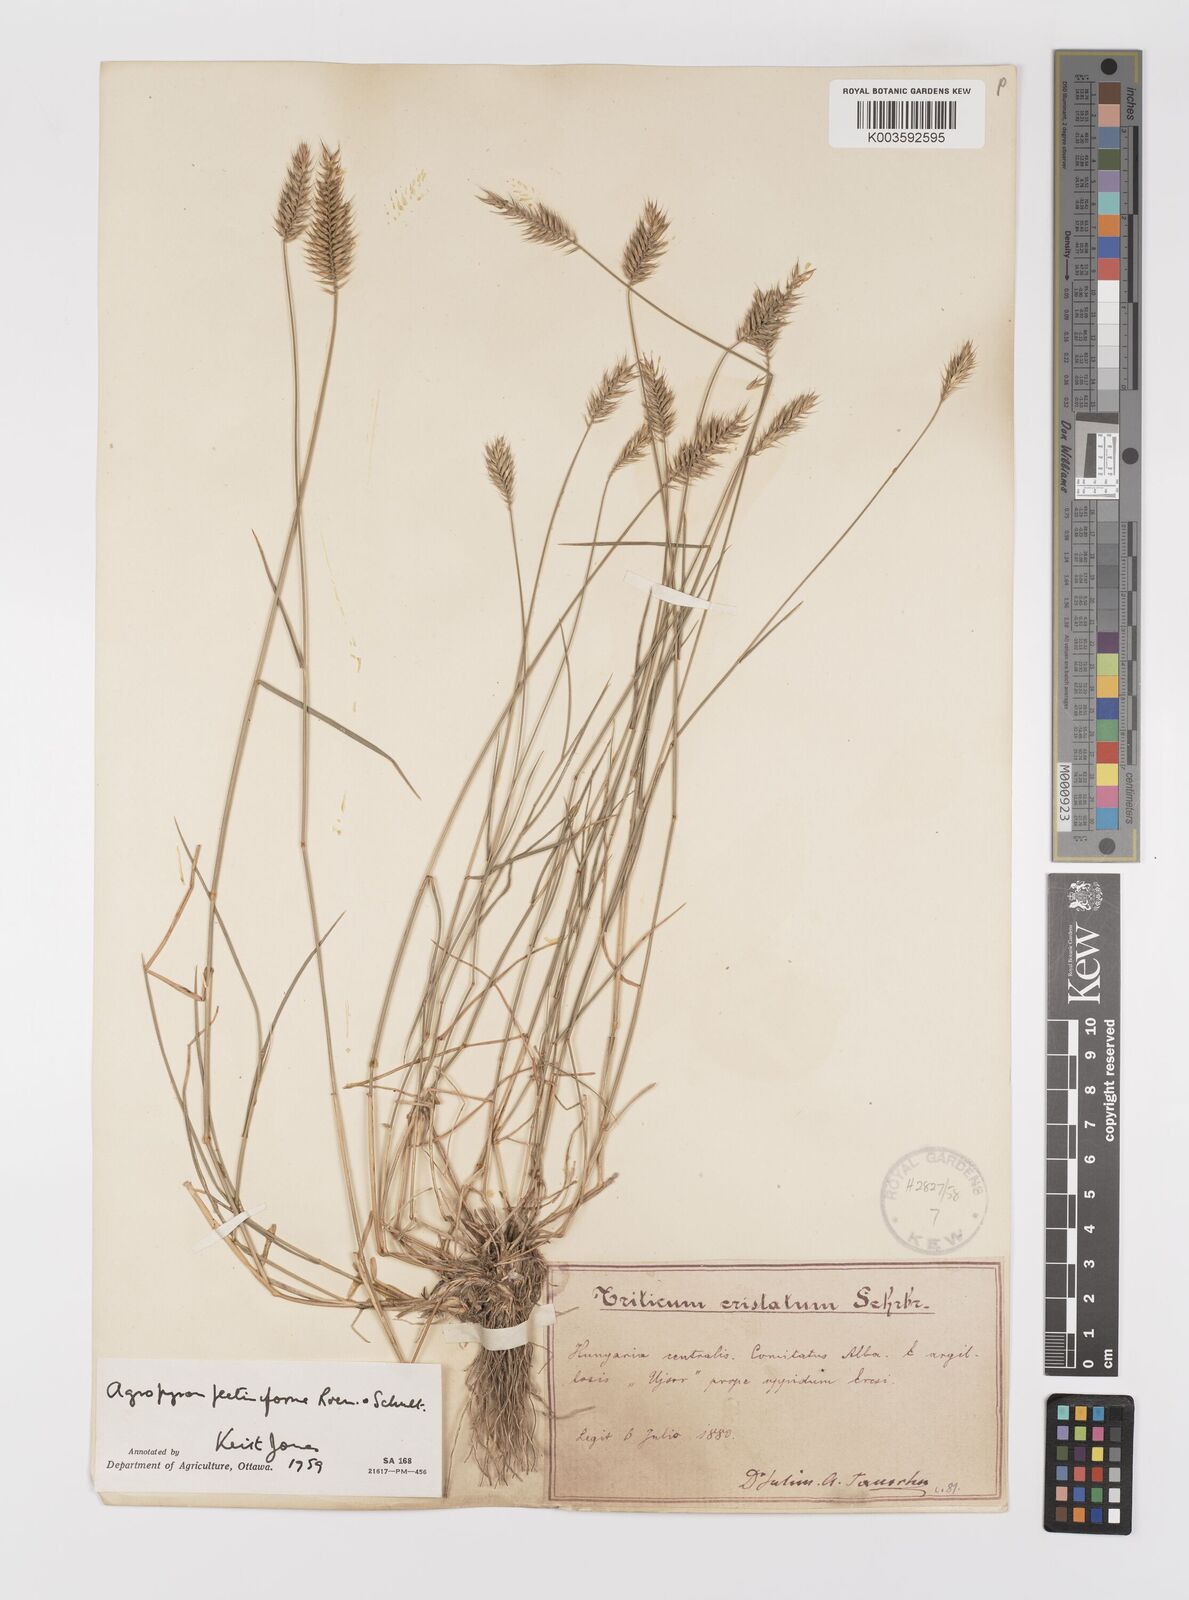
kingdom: Plantae
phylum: Tracheophyta
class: Liliopsida
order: Poales
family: Poaceae
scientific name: Poaceae
